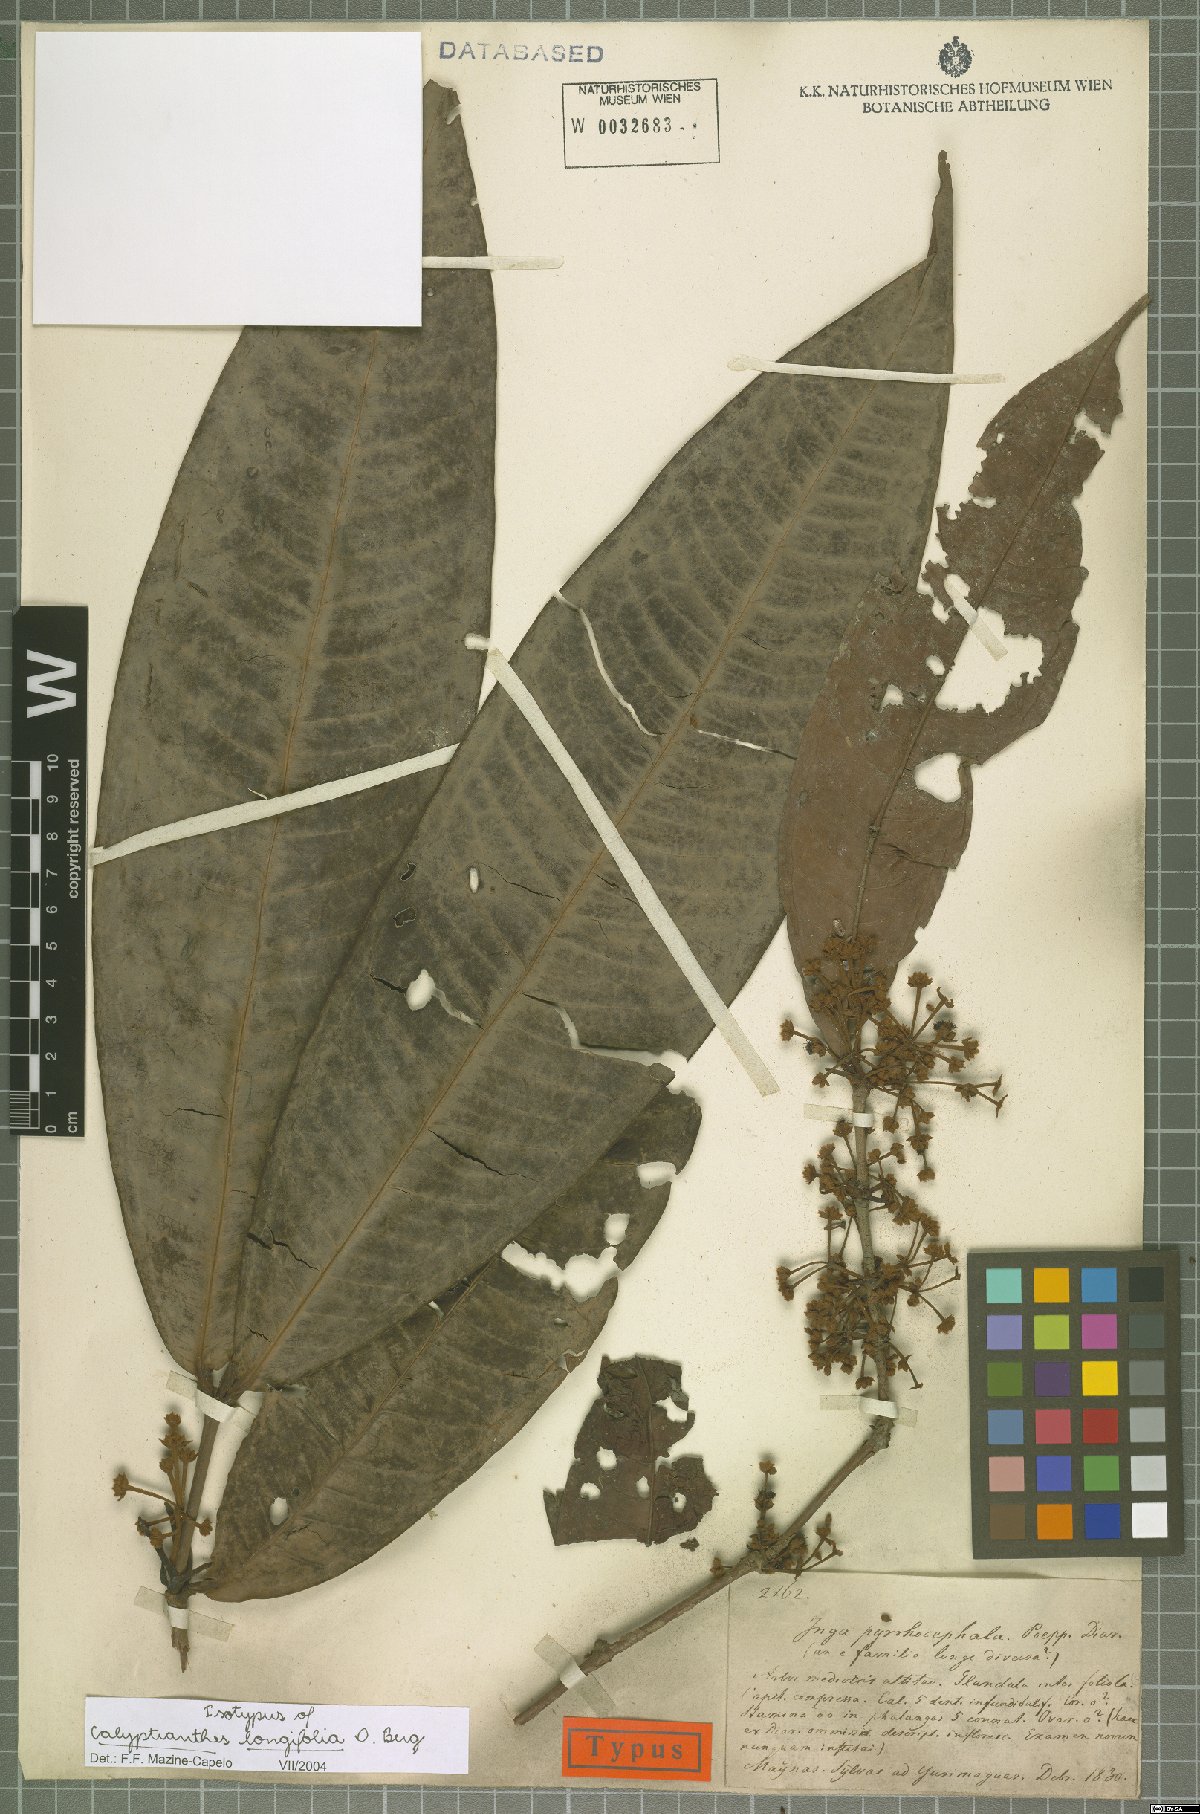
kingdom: Plantae
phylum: Tracheophyta
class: Magnoliopsida
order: Myrtales
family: Myrtaceae
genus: Myrcia
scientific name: Myrcia telephylla
